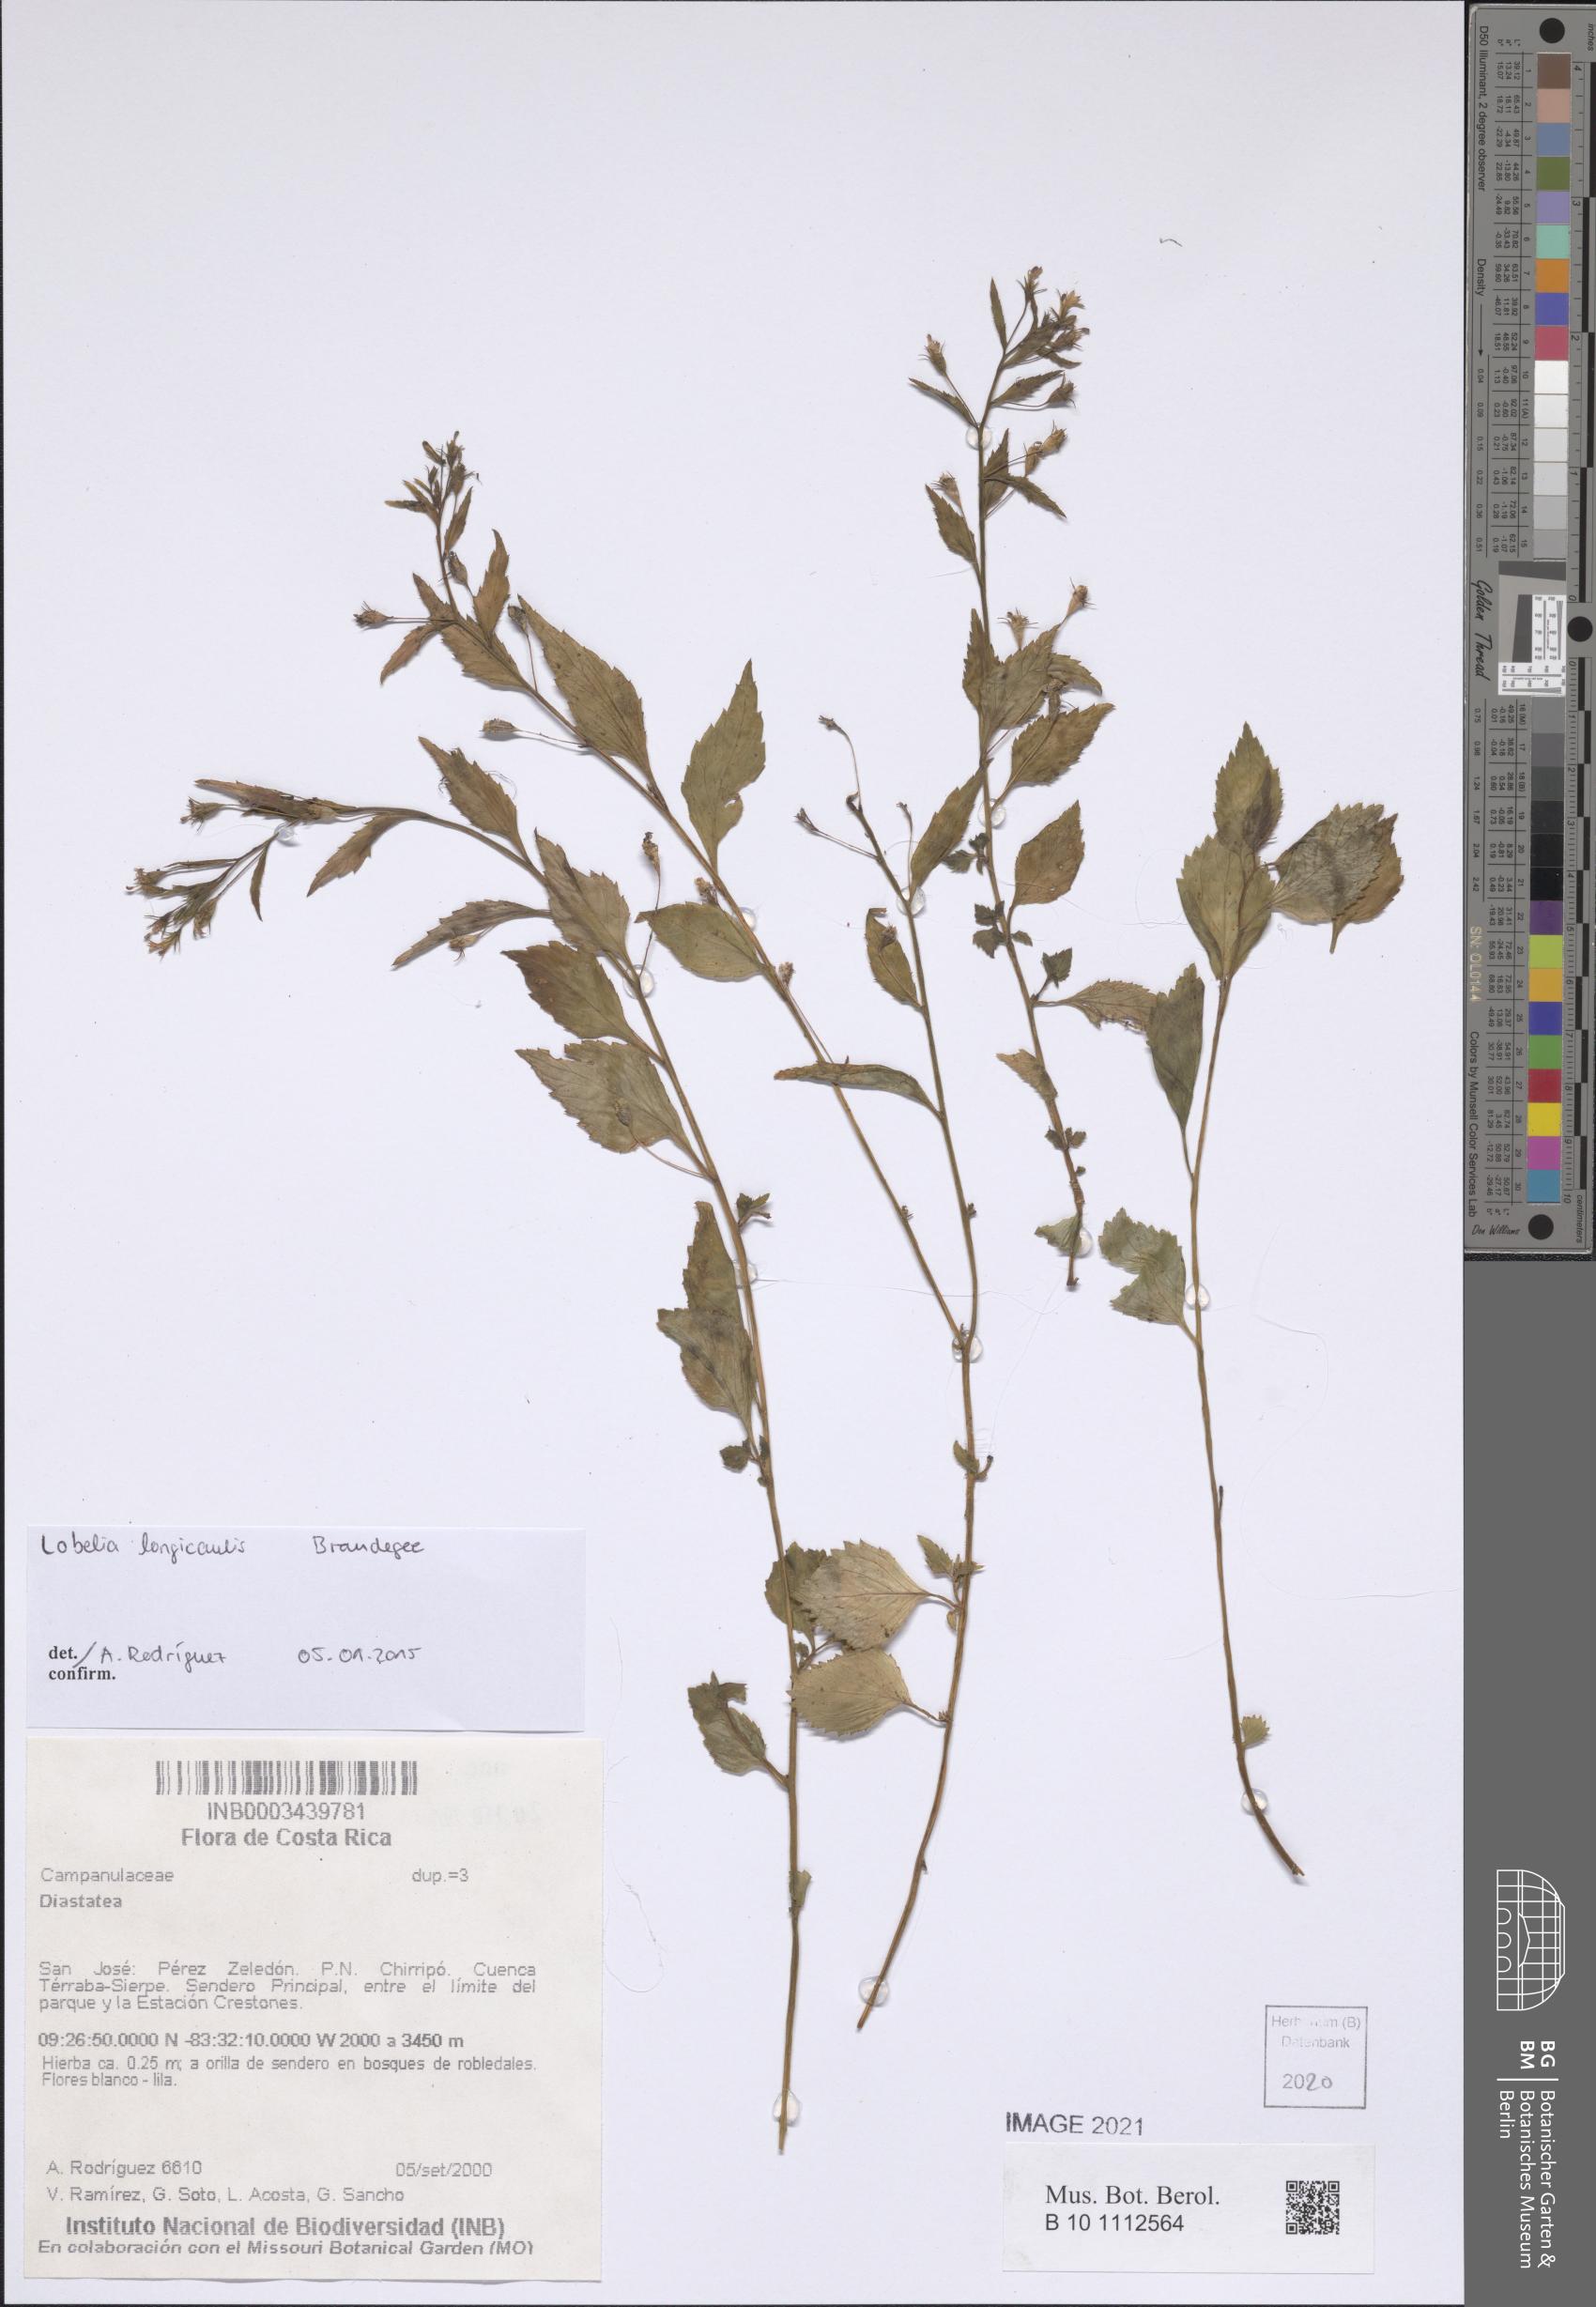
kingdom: Plantae
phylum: Tracheophyta
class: Magnoliopsida
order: Asterales
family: Campanulaceae
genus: Lobelia
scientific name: Lobelia longicaulis
